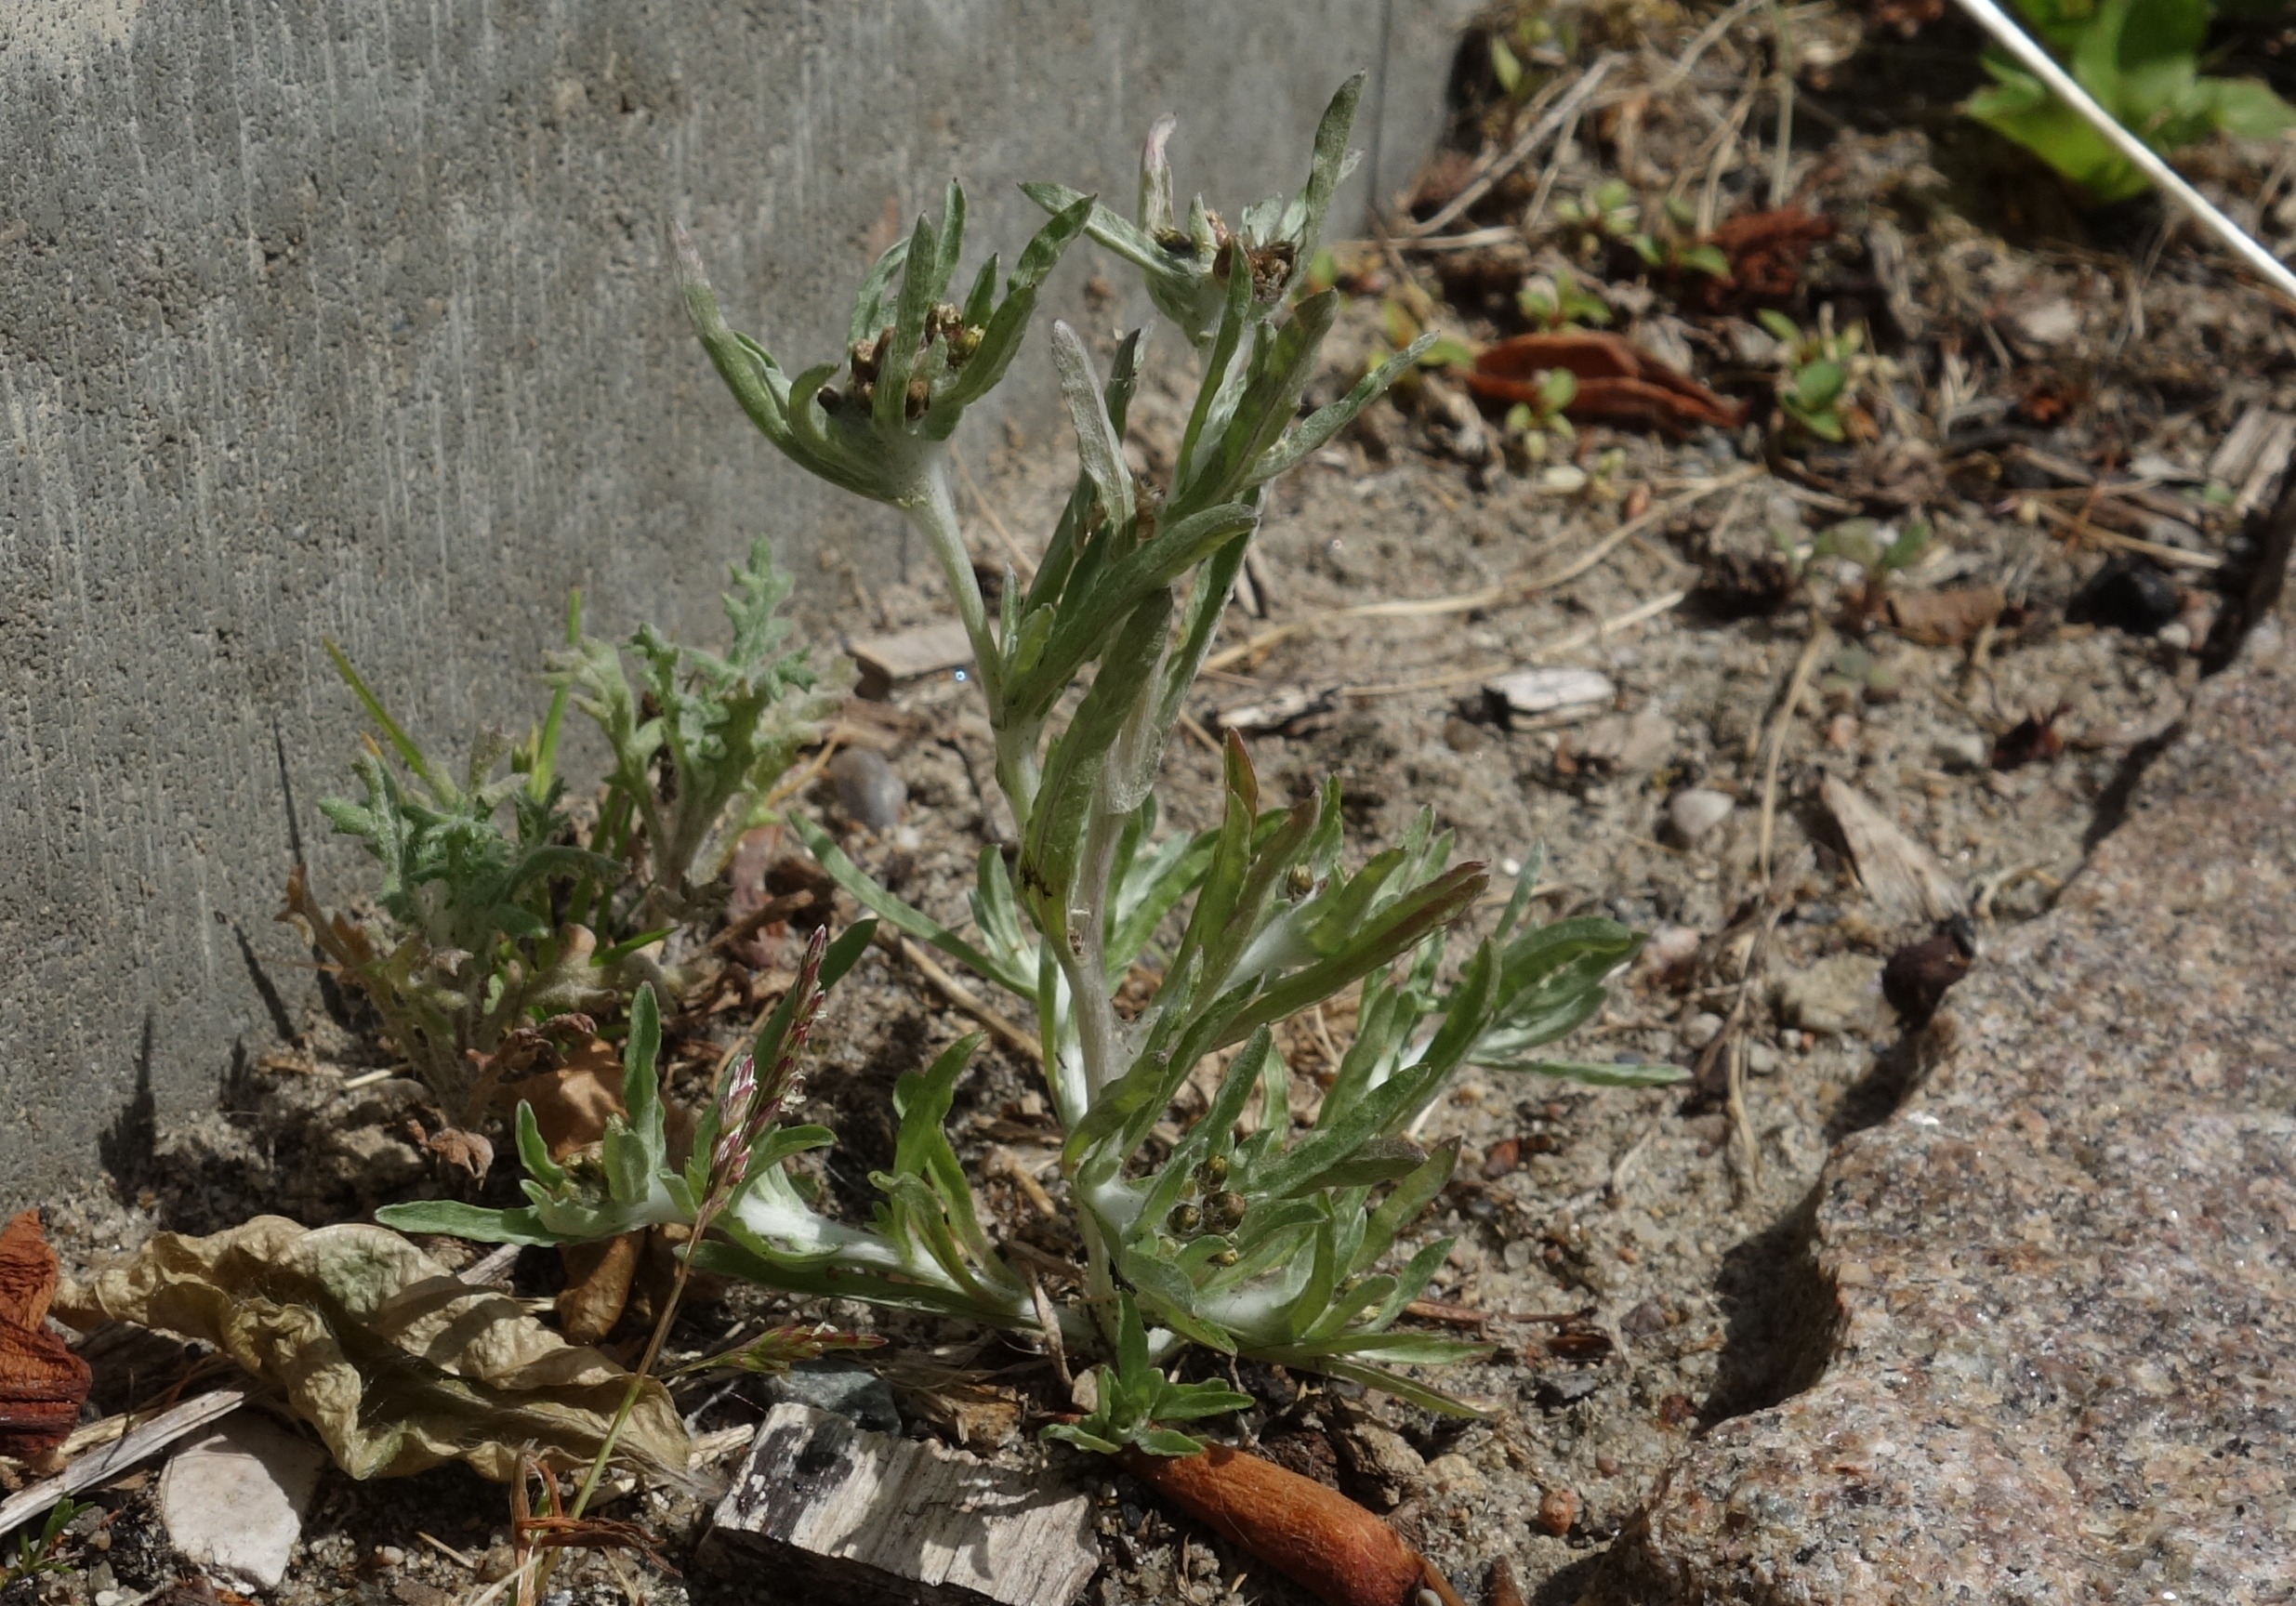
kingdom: Plantae
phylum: Tracheophyta
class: Magnoliopsida
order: Asterales
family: Asteraceae
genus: Gnaphalium
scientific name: Gnaphalium uliginosum
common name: Sump-evighedsblomst
